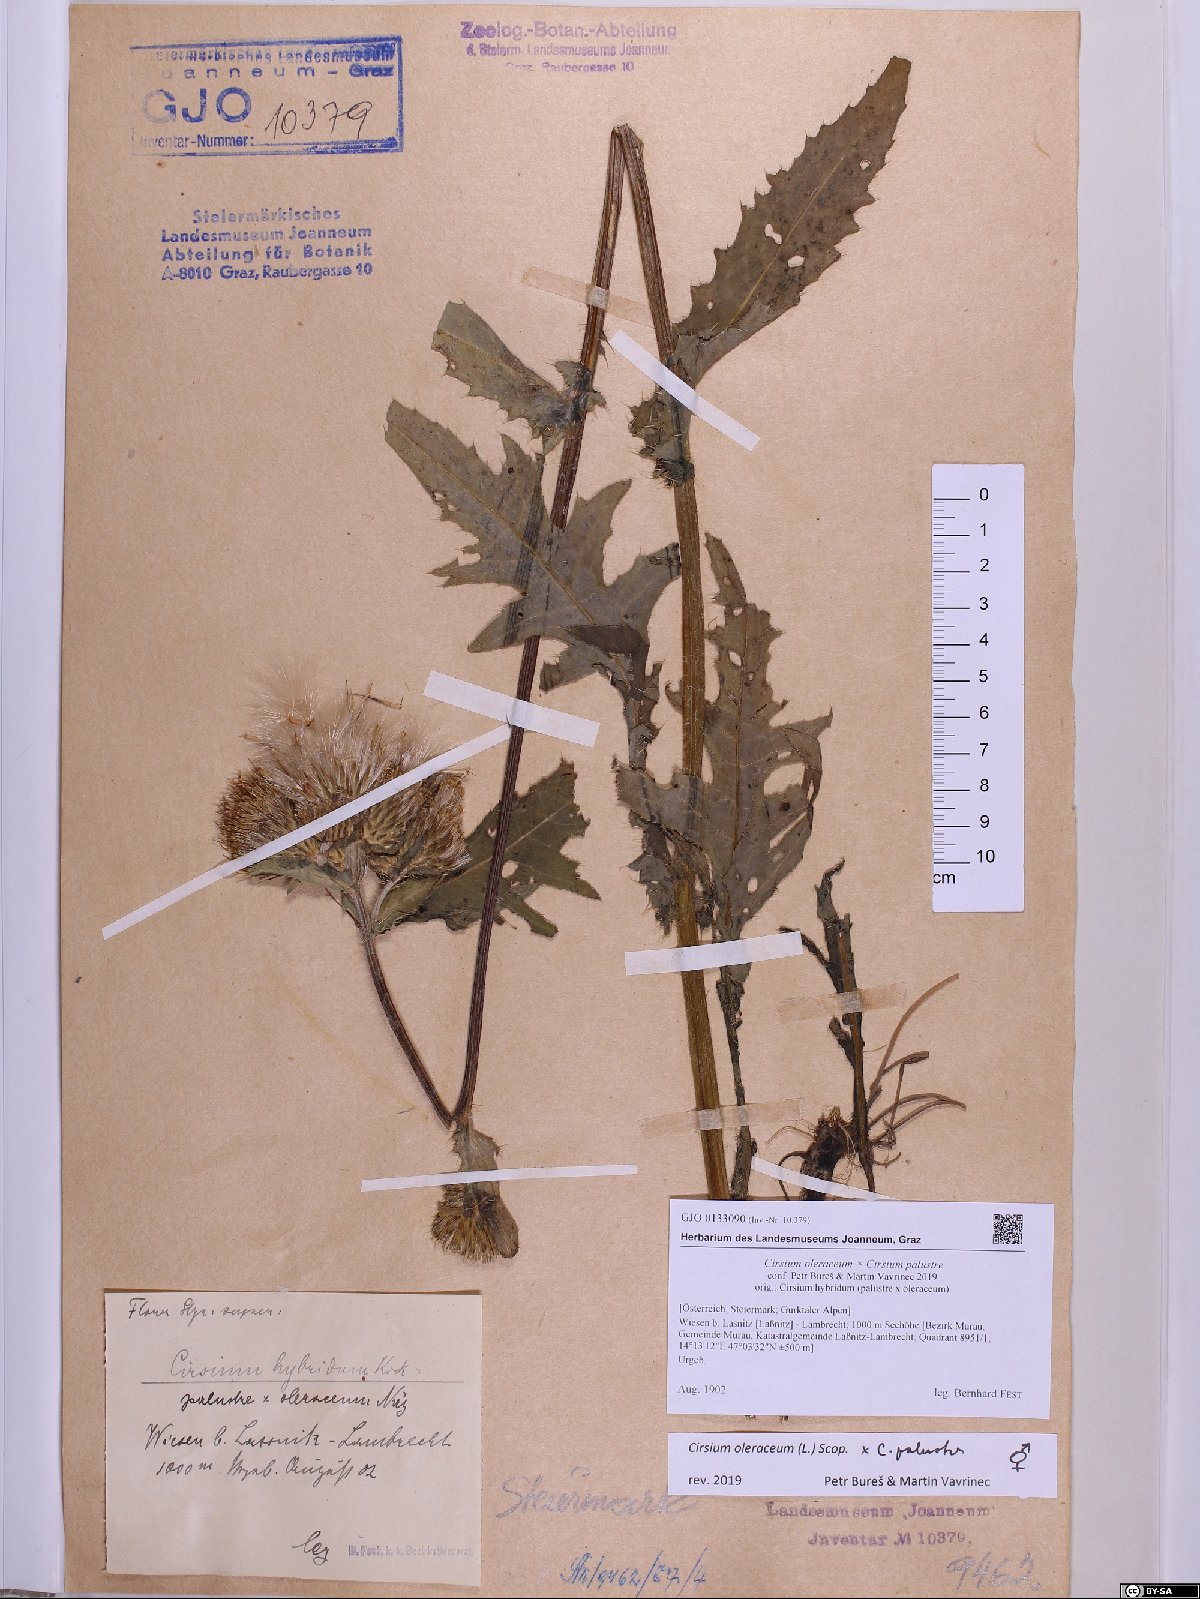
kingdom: Plantae
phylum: Tracheophyta
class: Magnoliopsida
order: Asterales
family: Asteraceae
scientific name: Asteraceae
